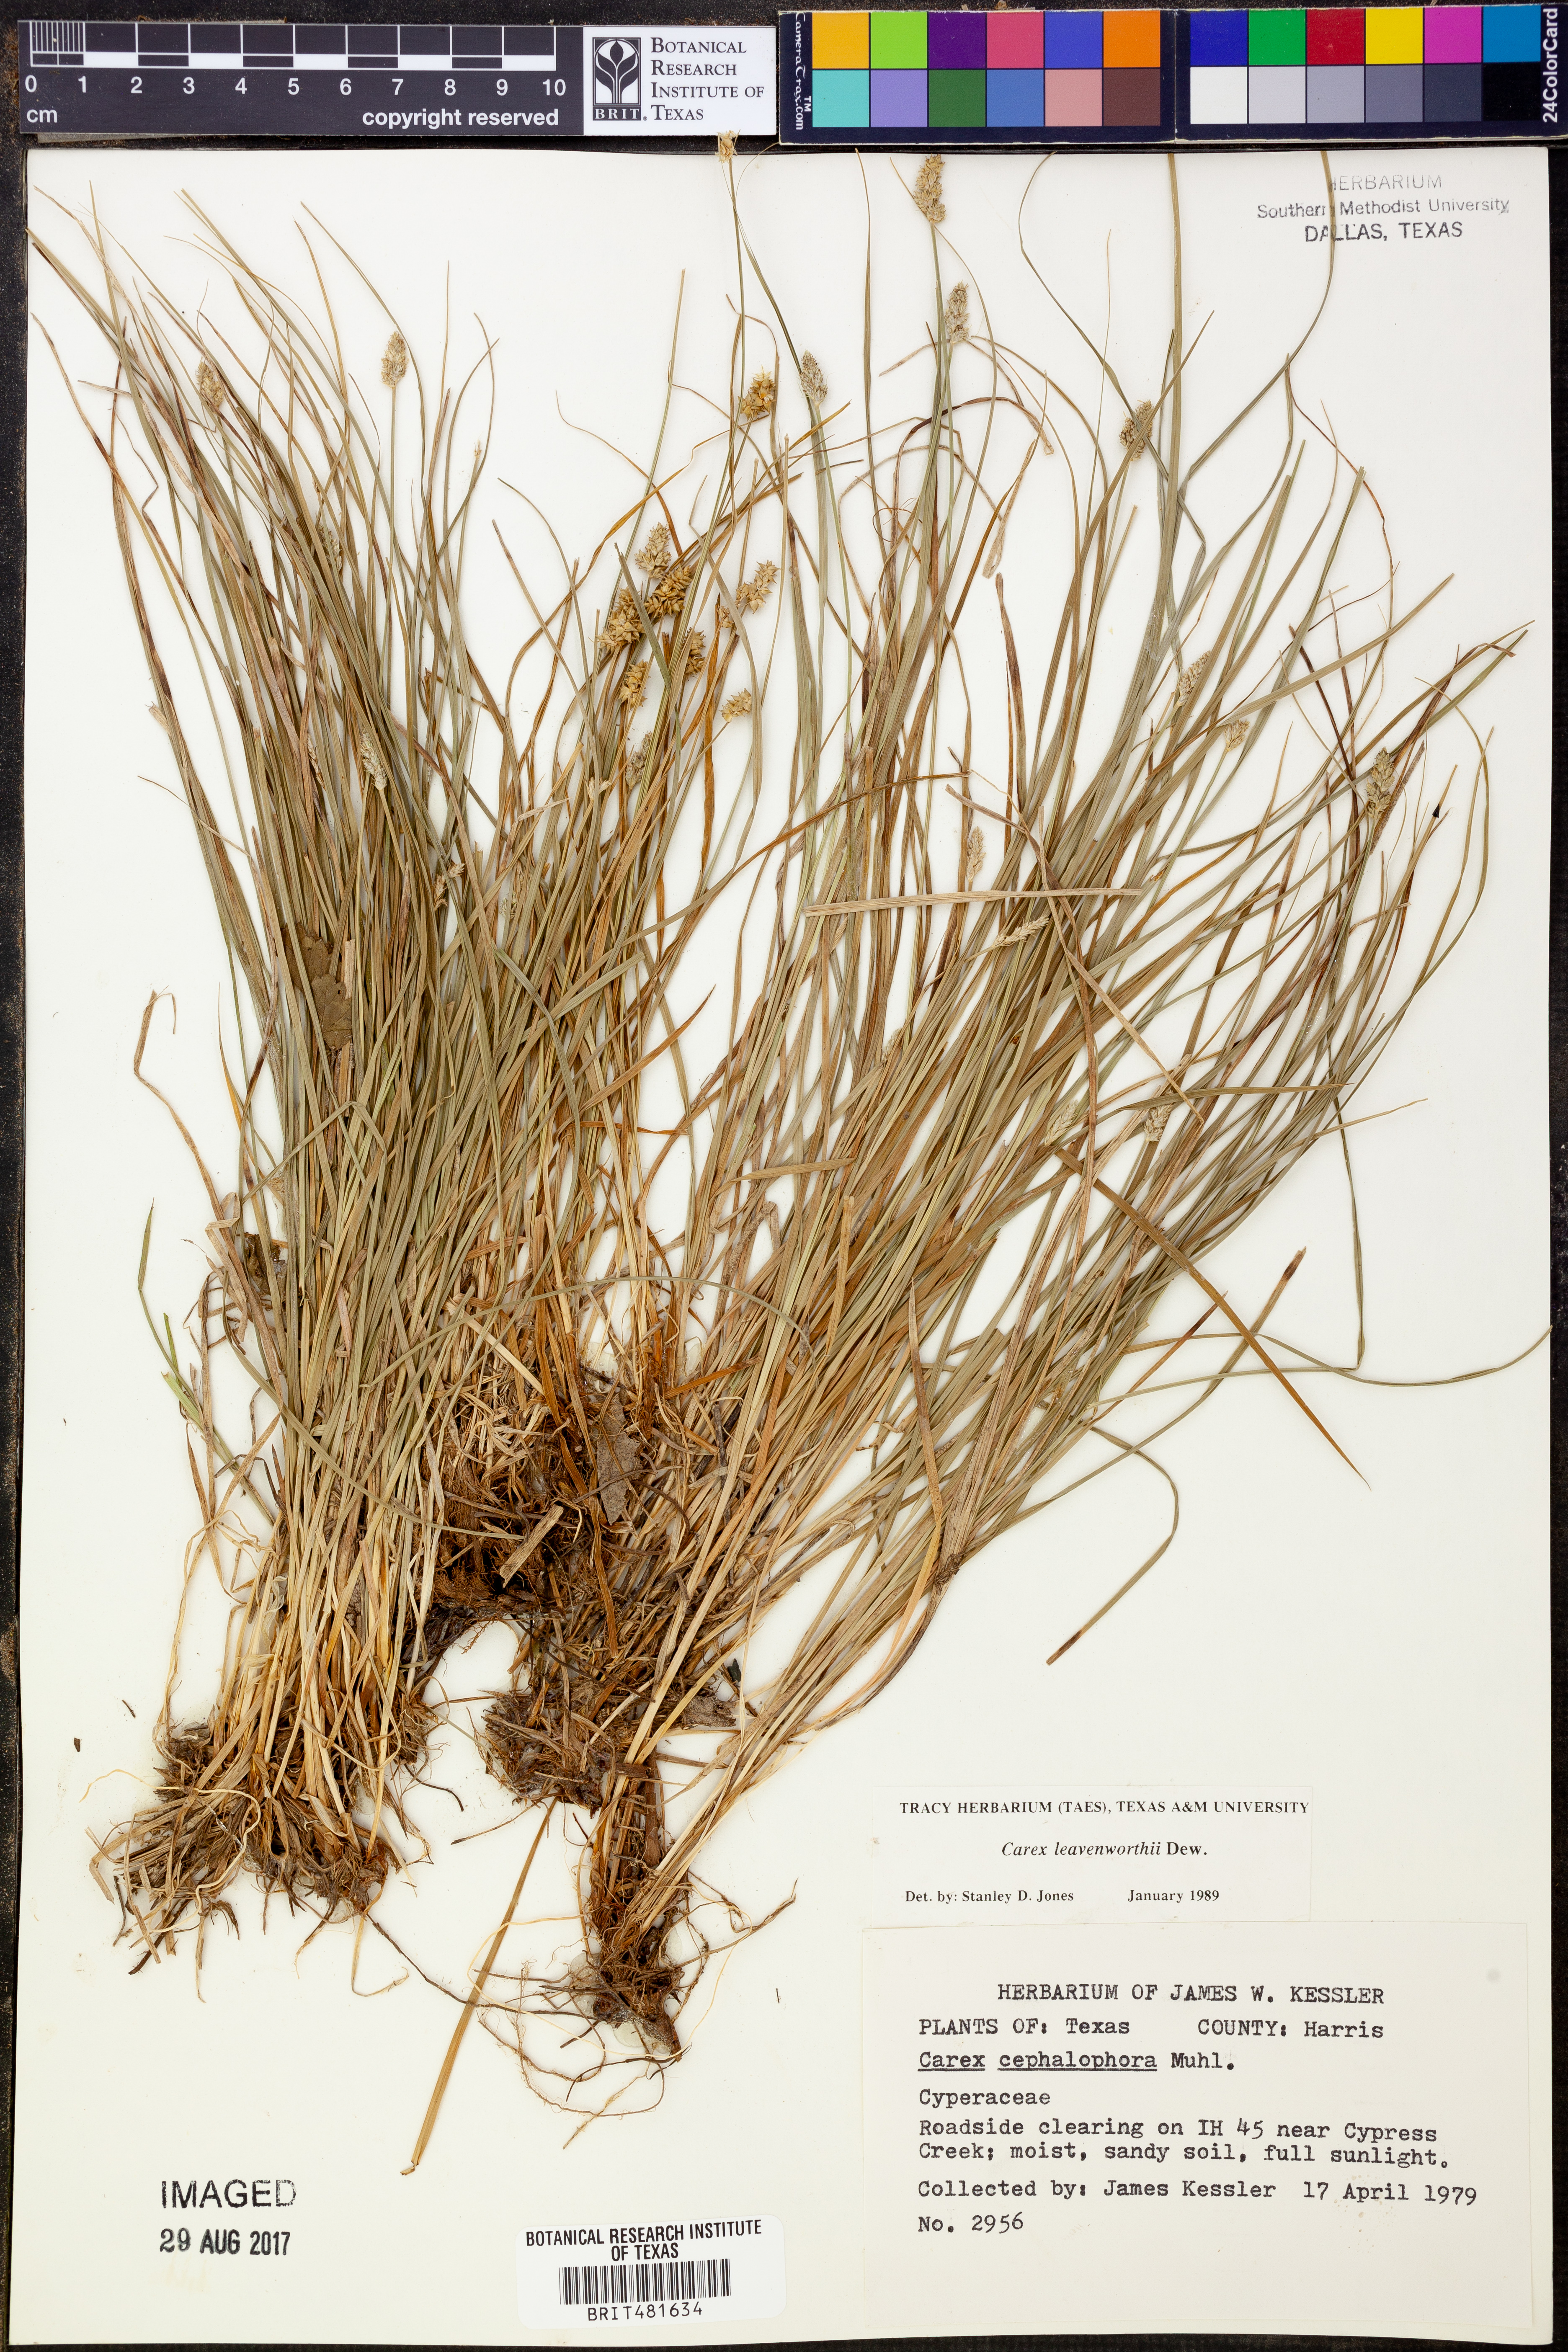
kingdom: Plantae
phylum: Tracheophyta
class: Liliopsida
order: Poales
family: Cyperaceae
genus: Carex
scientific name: Carex leavenworthii
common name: Leavenworth's bracted sedge
